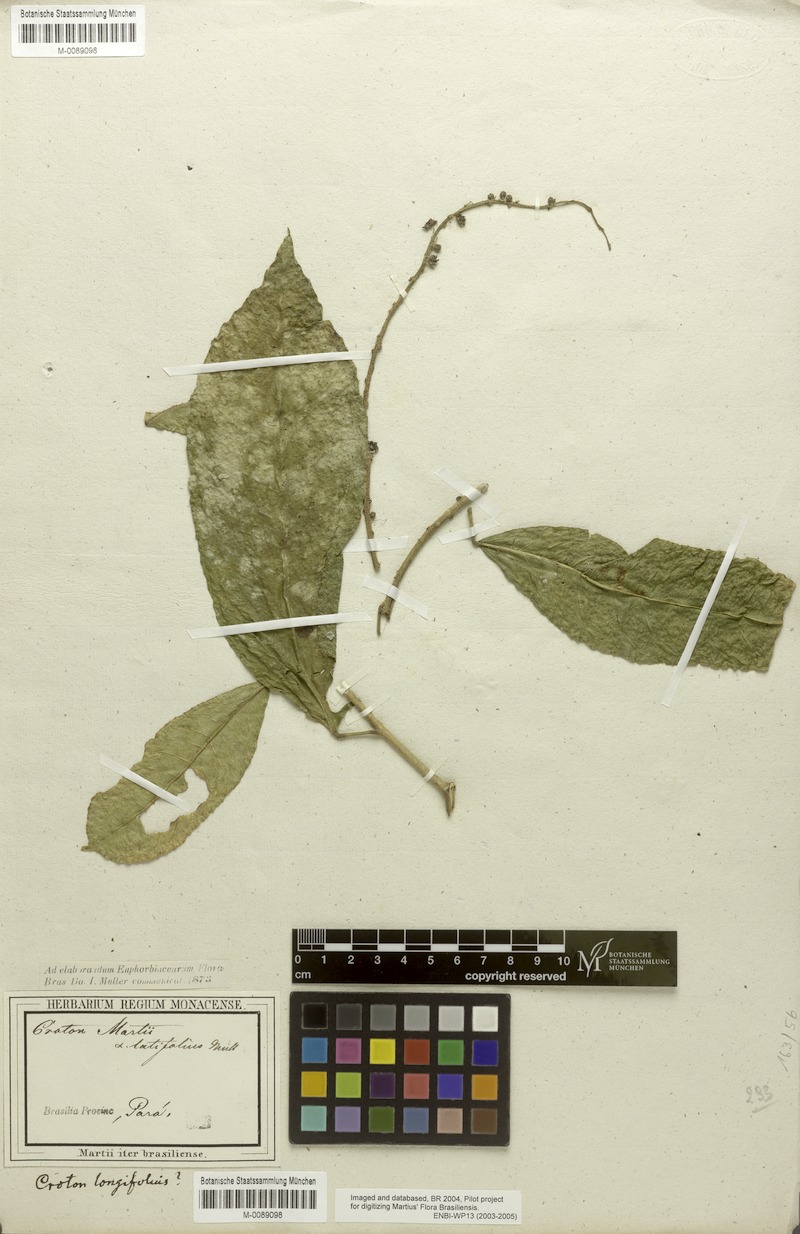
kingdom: Plantae
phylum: Tracheophyta
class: Magnoliopsida
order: Malpighiales
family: Euphorbiaceae
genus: Croton
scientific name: Croton cuneatus
